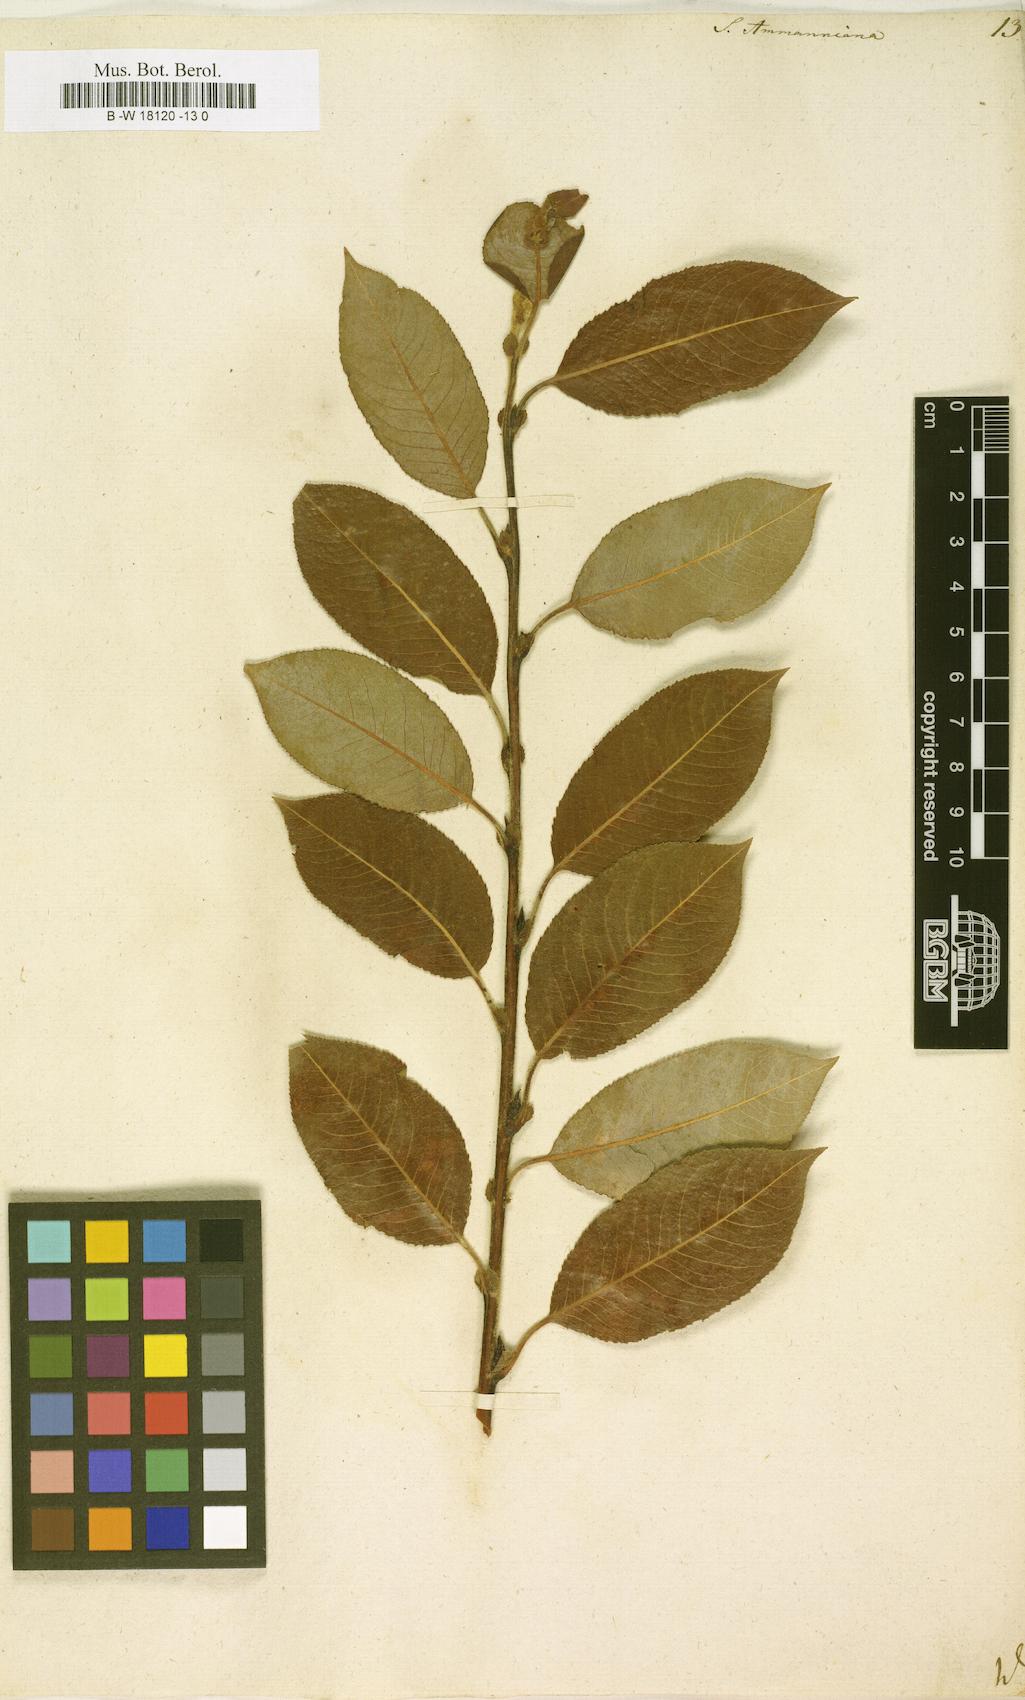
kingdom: Plantae
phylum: Tracheophyta
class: Magnoliopsida
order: Malpighiales
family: Salicaceae
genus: Salix
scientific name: Salix myrsinifolia
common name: Dark-leaved willow
